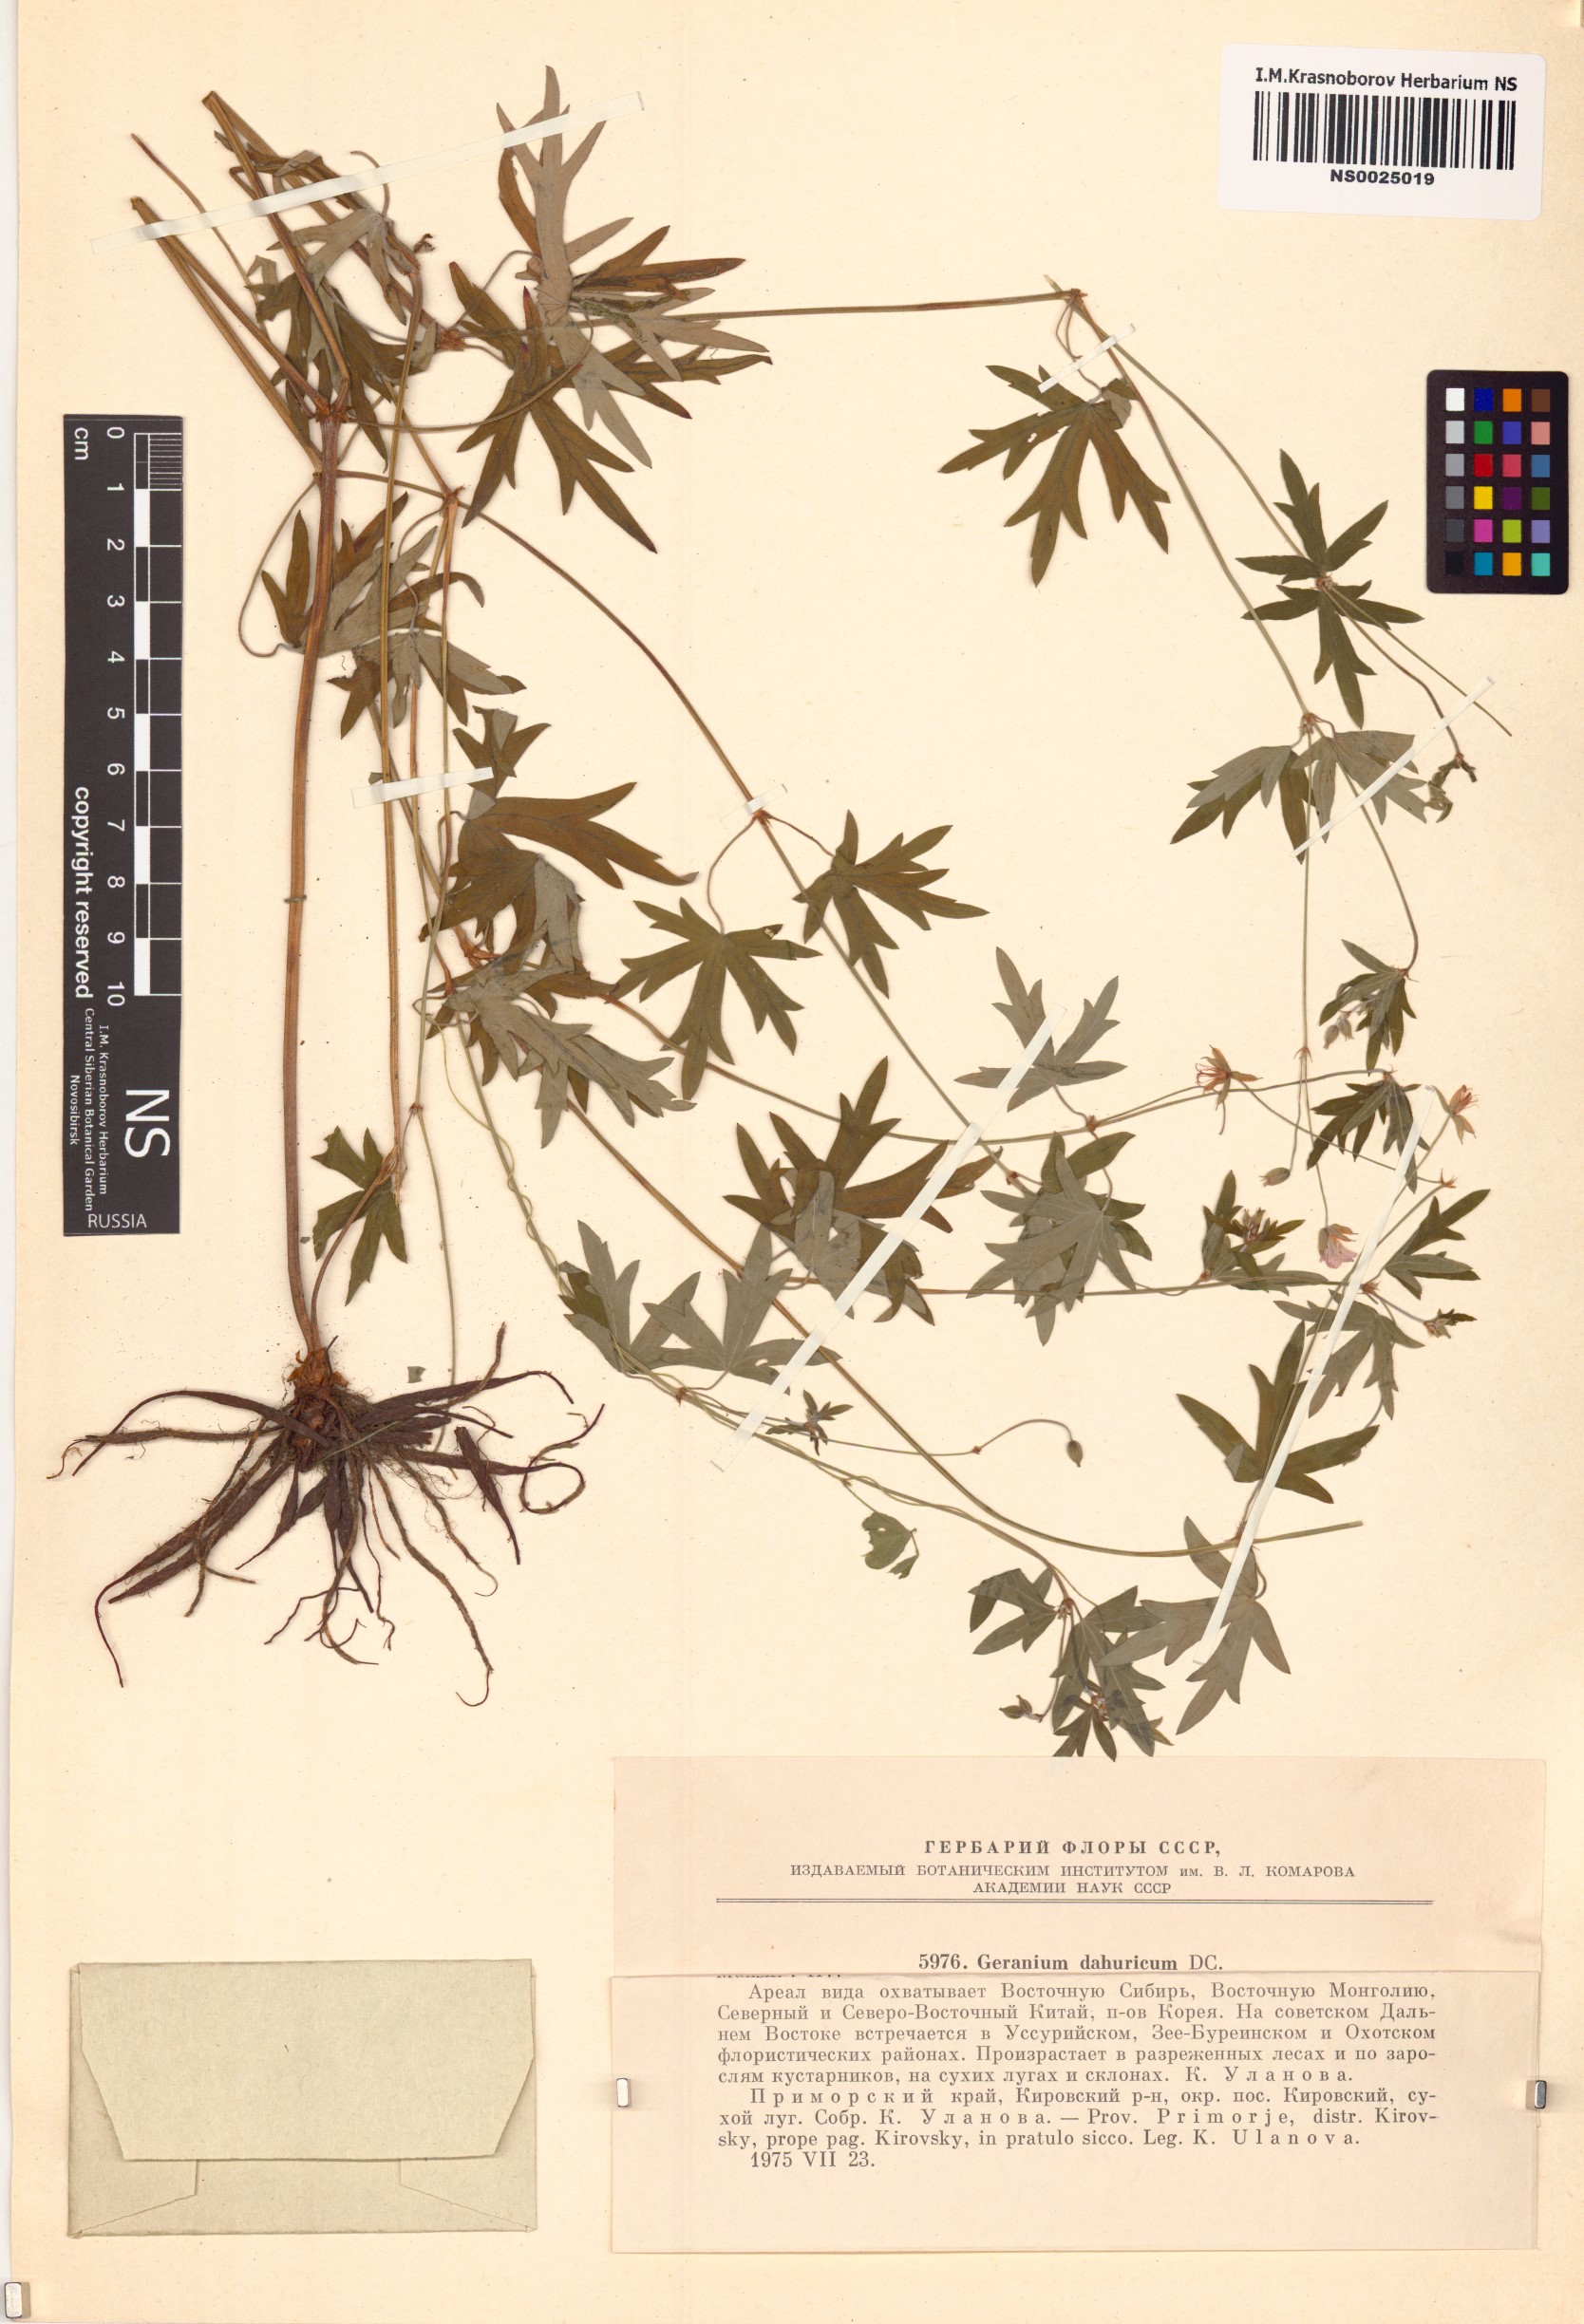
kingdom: Plantae
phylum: Tracheophyta
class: Magnoliopsida
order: Geraniales
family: Geraniaceae
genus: Geranium
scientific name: Geranium dahuricum
